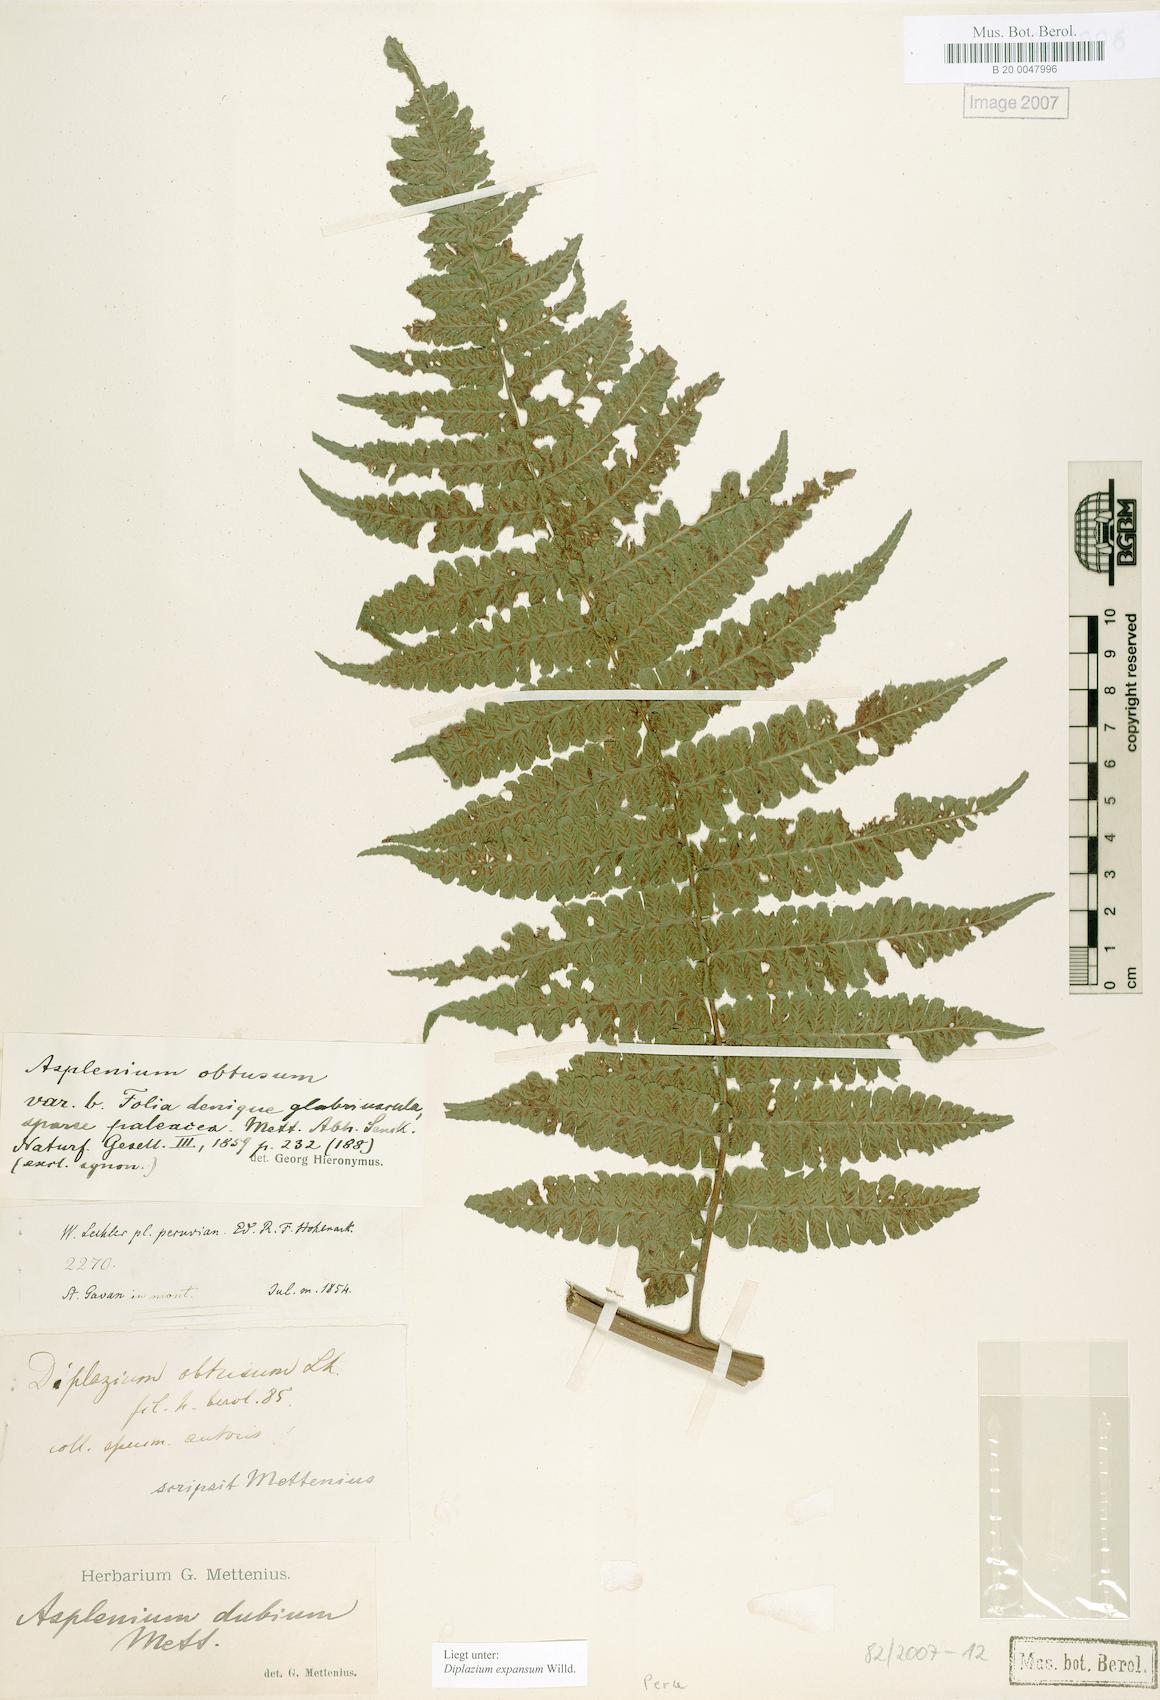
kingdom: Plantae
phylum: Tracheophyta
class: Polypodiopsida
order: Polypodiales
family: Athyriaceae
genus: Diplazium
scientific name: Diplazium expansum
